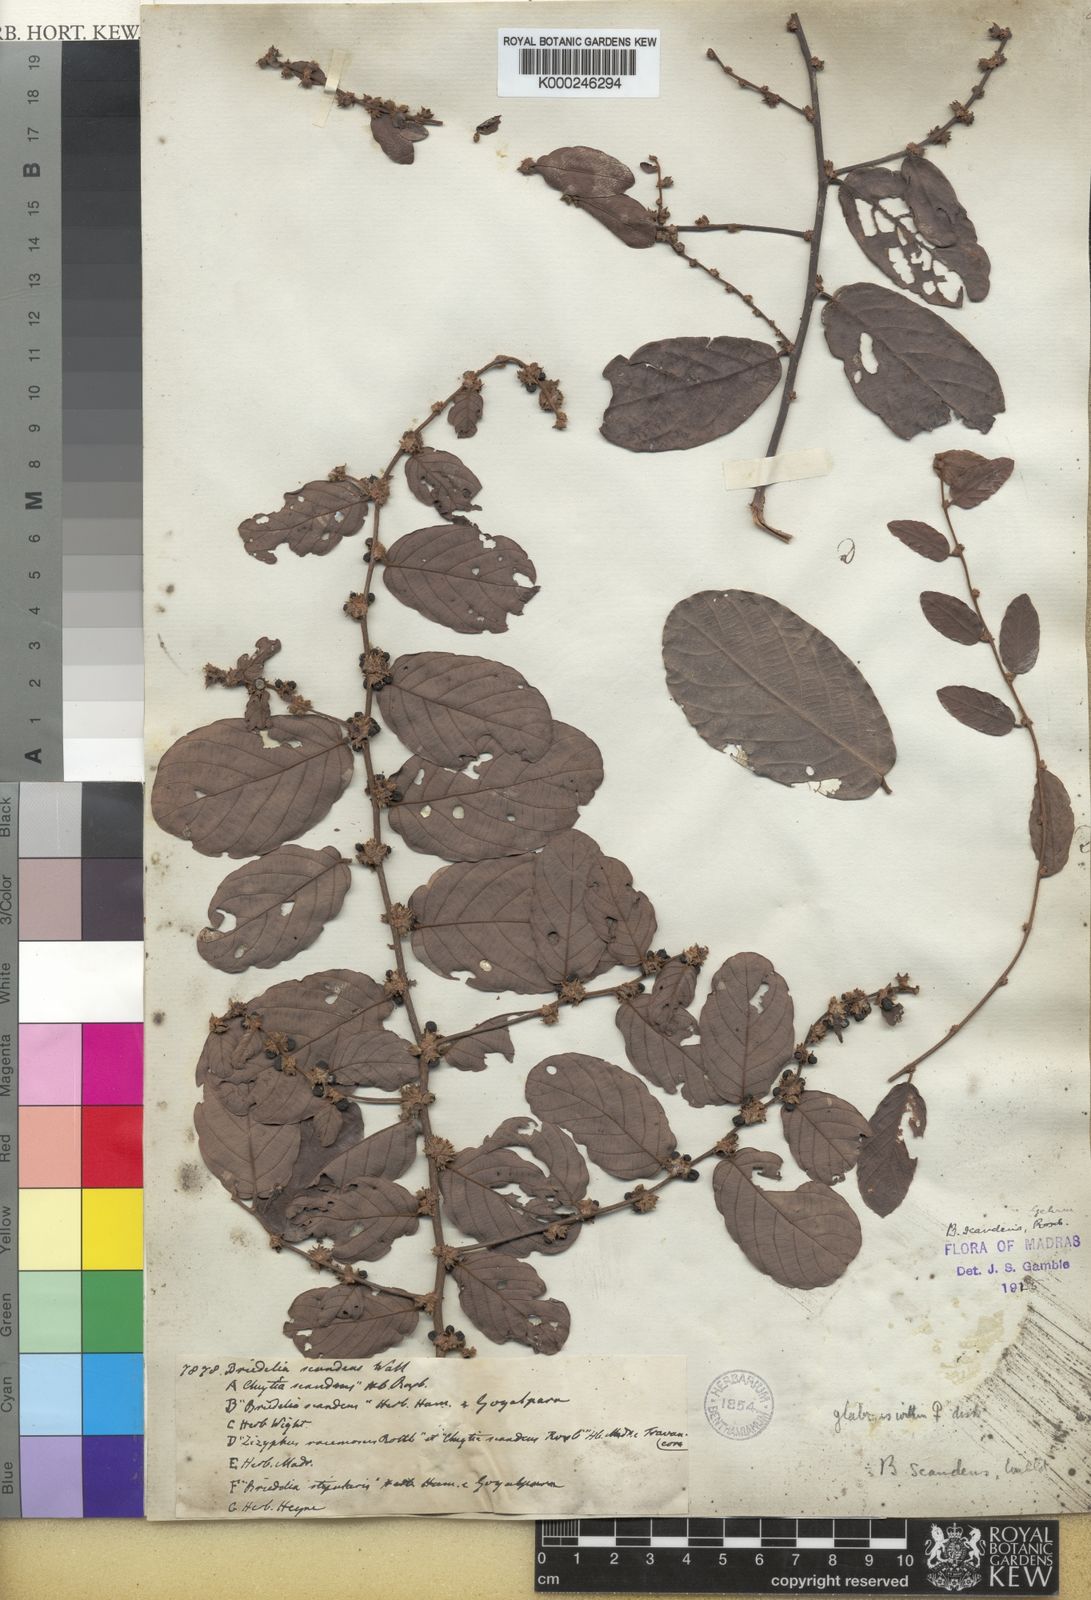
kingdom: Plantae
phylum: Tracheophyta
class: Magnoliopsida
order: Malpighiales
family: Phyllanthaceae
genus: Bridelia
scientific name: Bridelia stipularis
